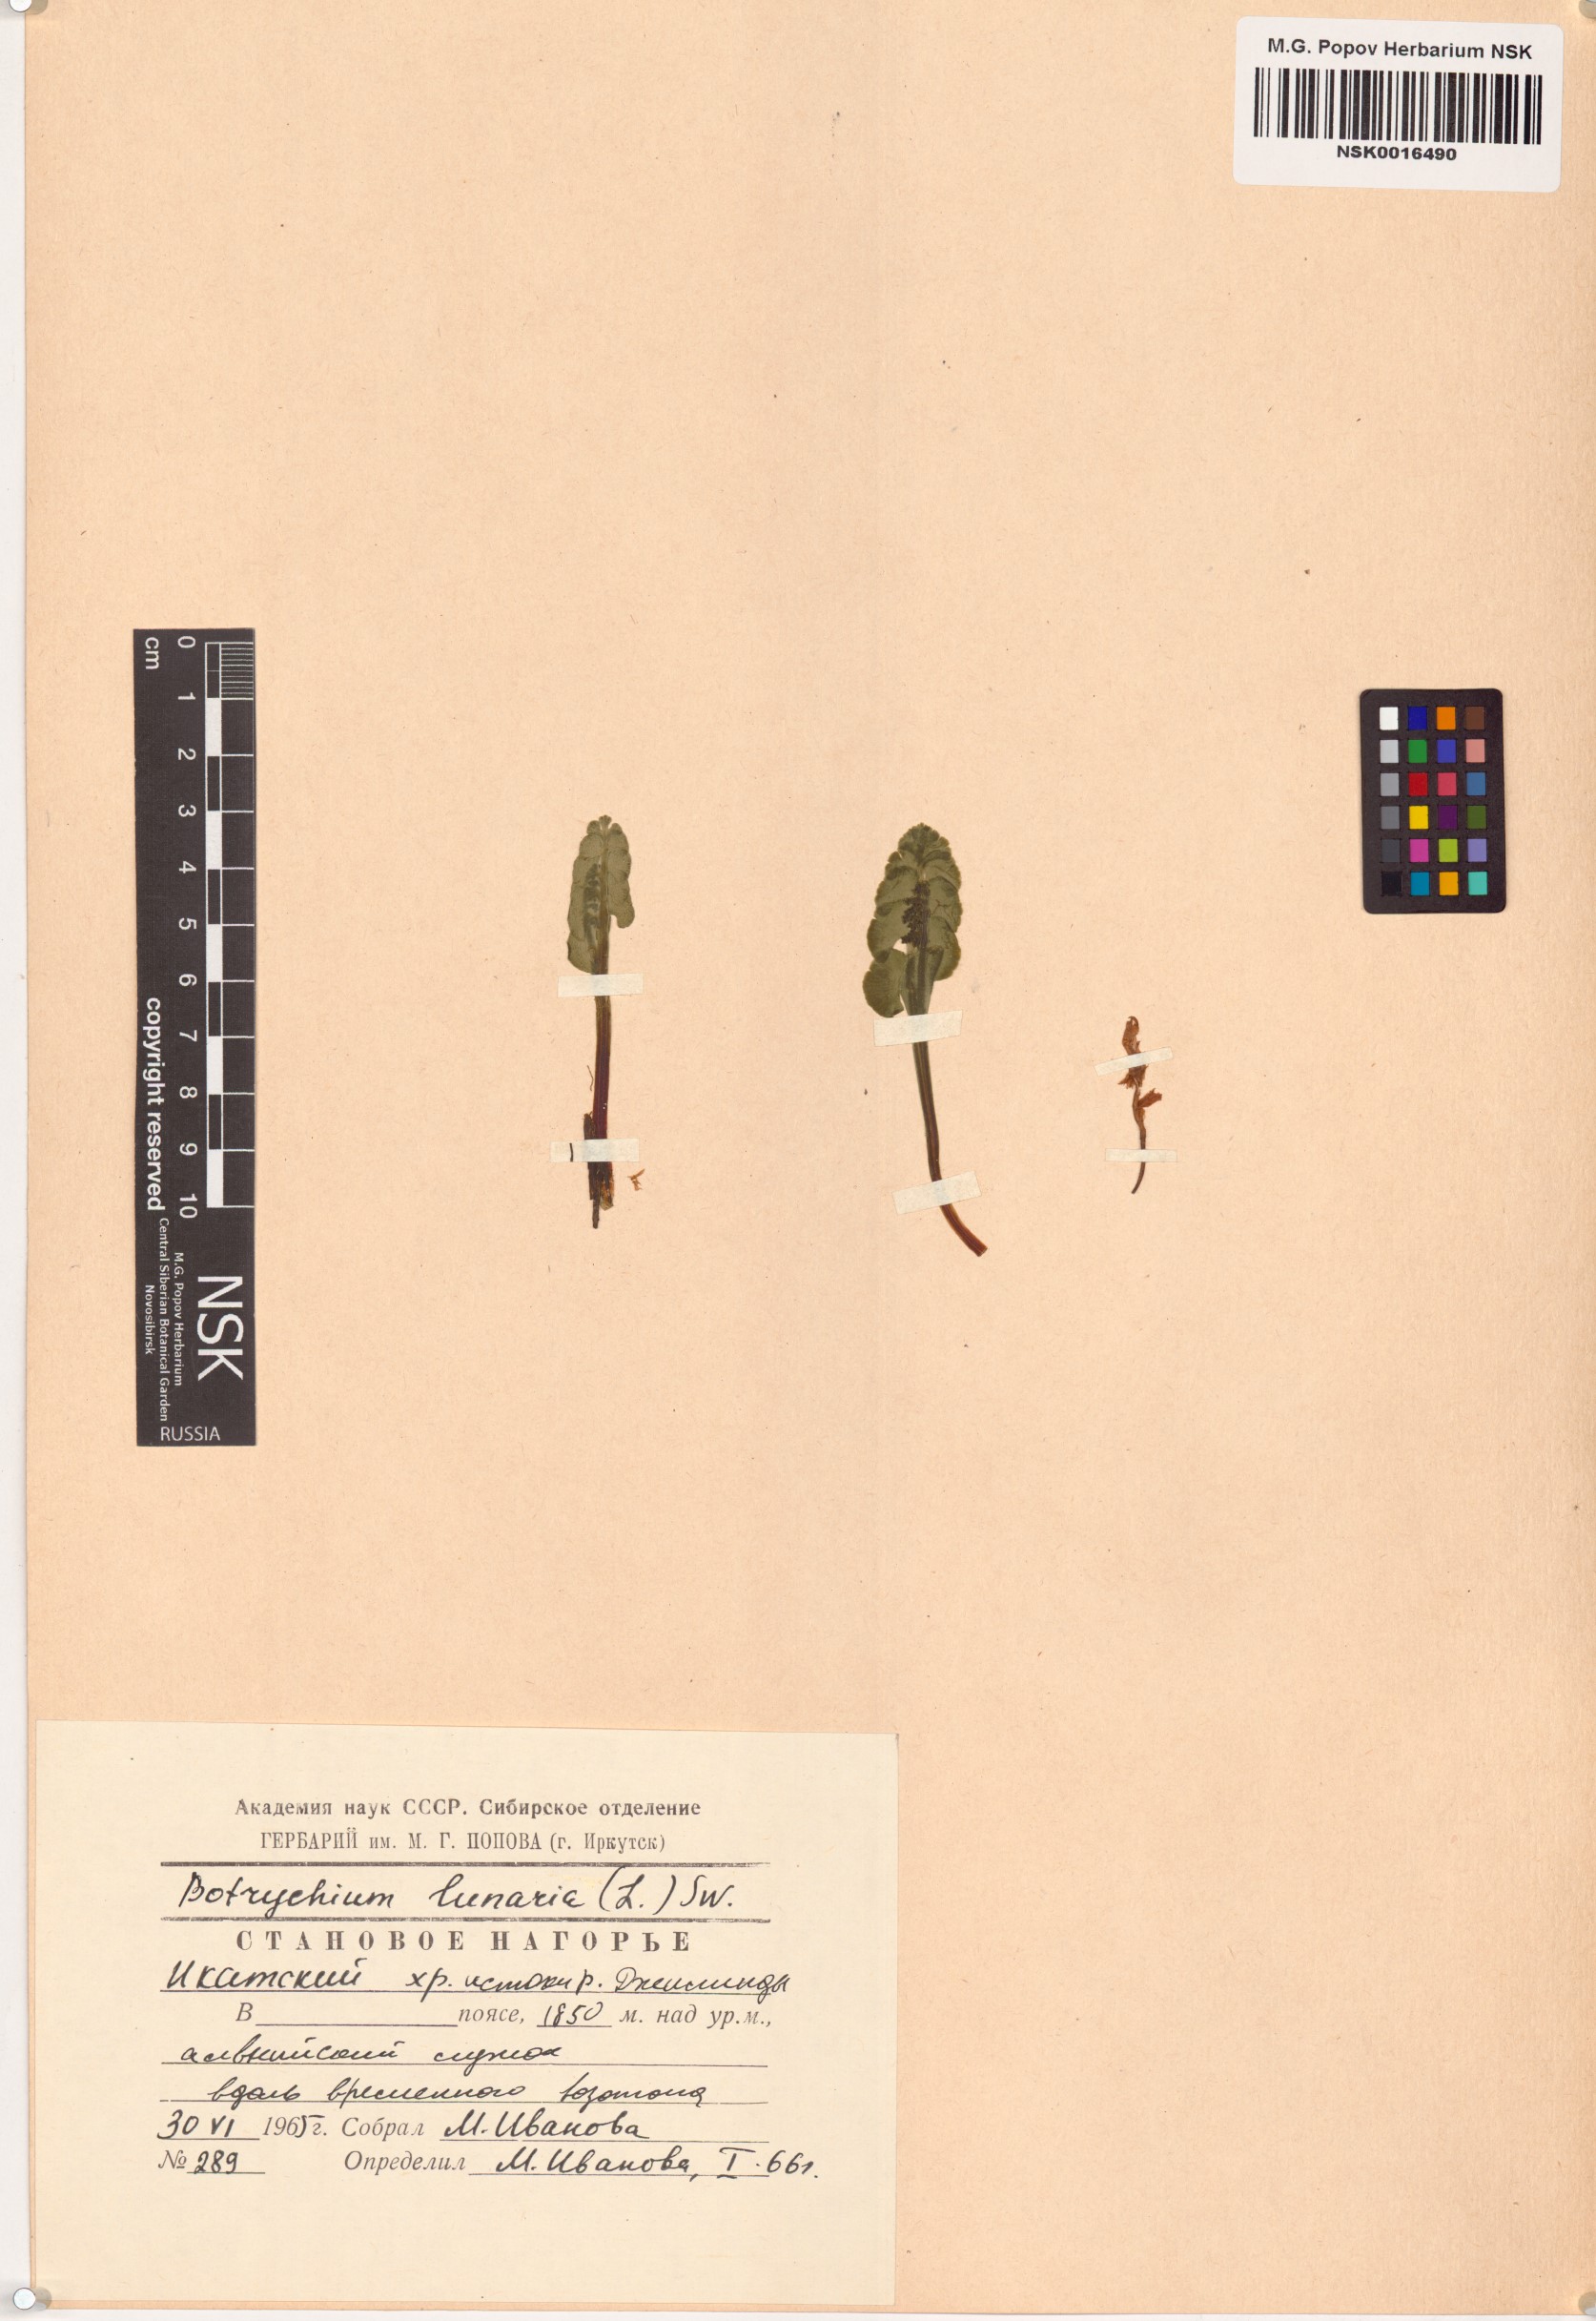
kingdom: Plantae
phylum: Tracheophyta
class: Polypodiopsida
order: Ophioglossales
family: Ophioglossaceae
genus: Botrychium
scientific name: Botrychium lunaria
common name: Moonwort
